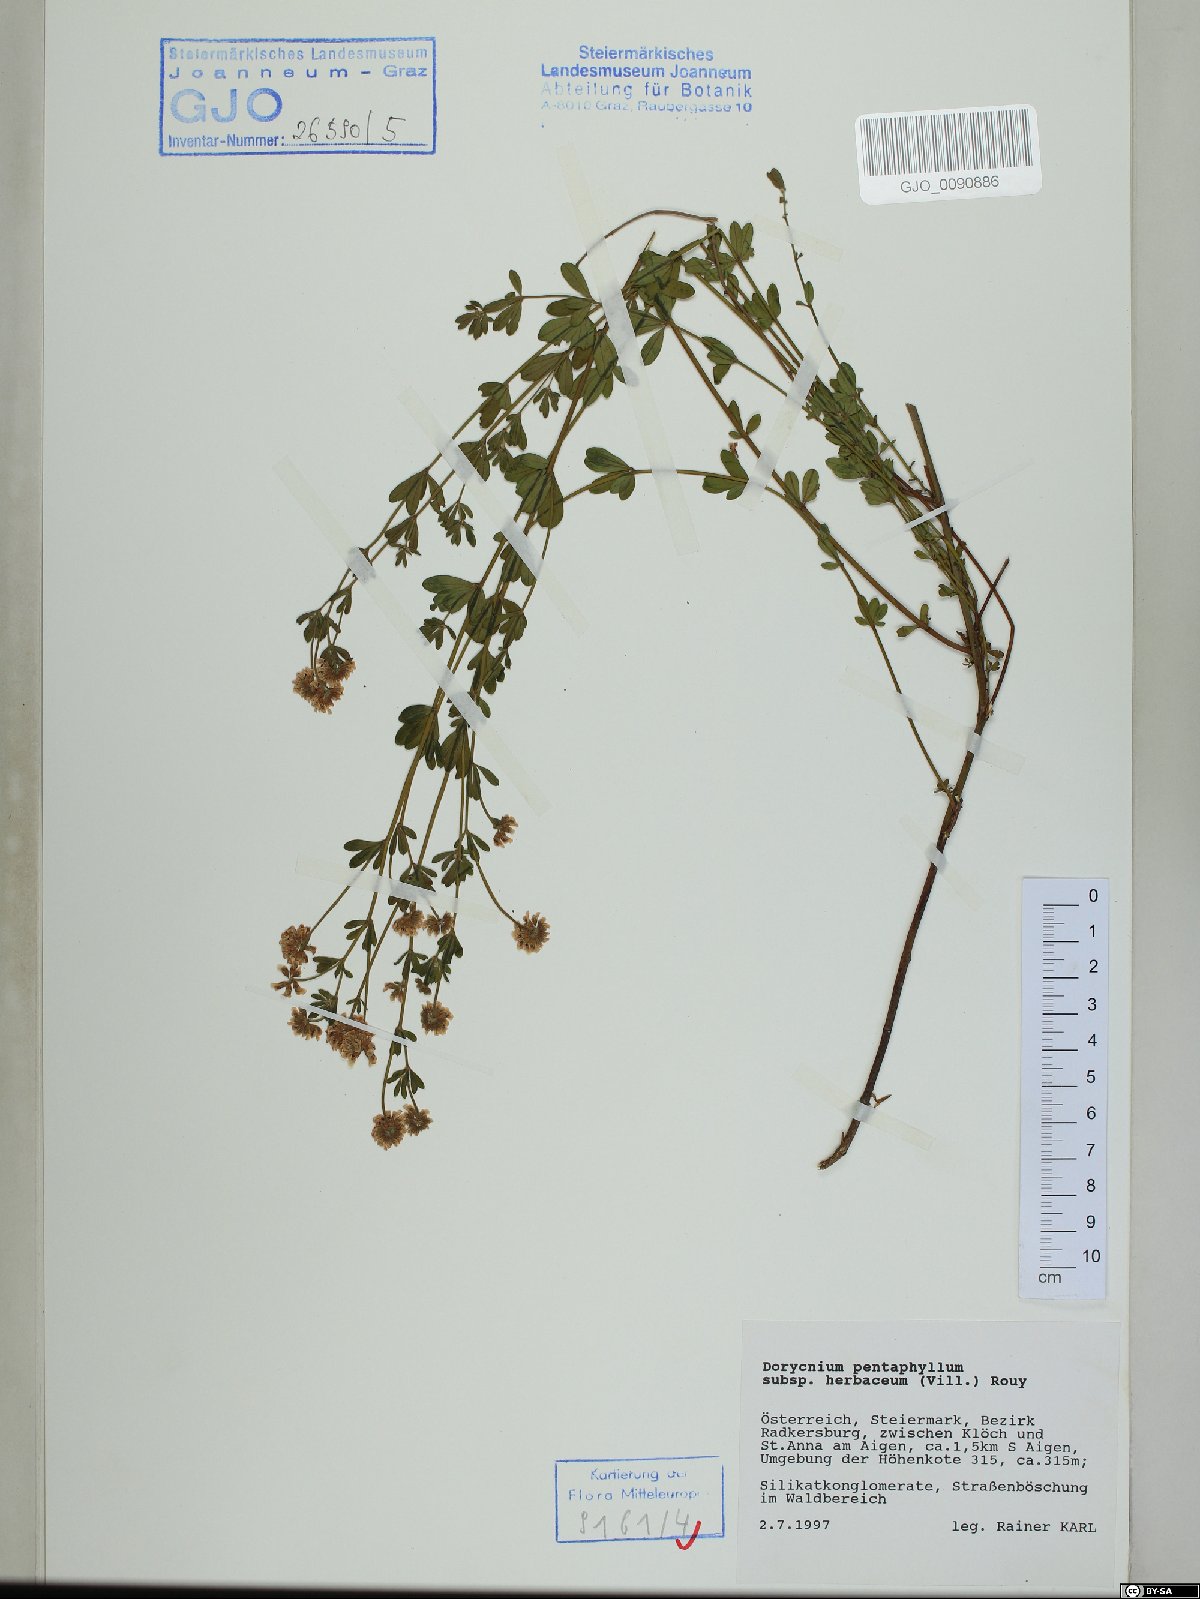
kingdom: Plantae
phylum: Tracheophyta
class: Magnoliopsida
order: Fabales
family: Fabaceae
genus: Lotus
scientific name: Lotus herbaceus
